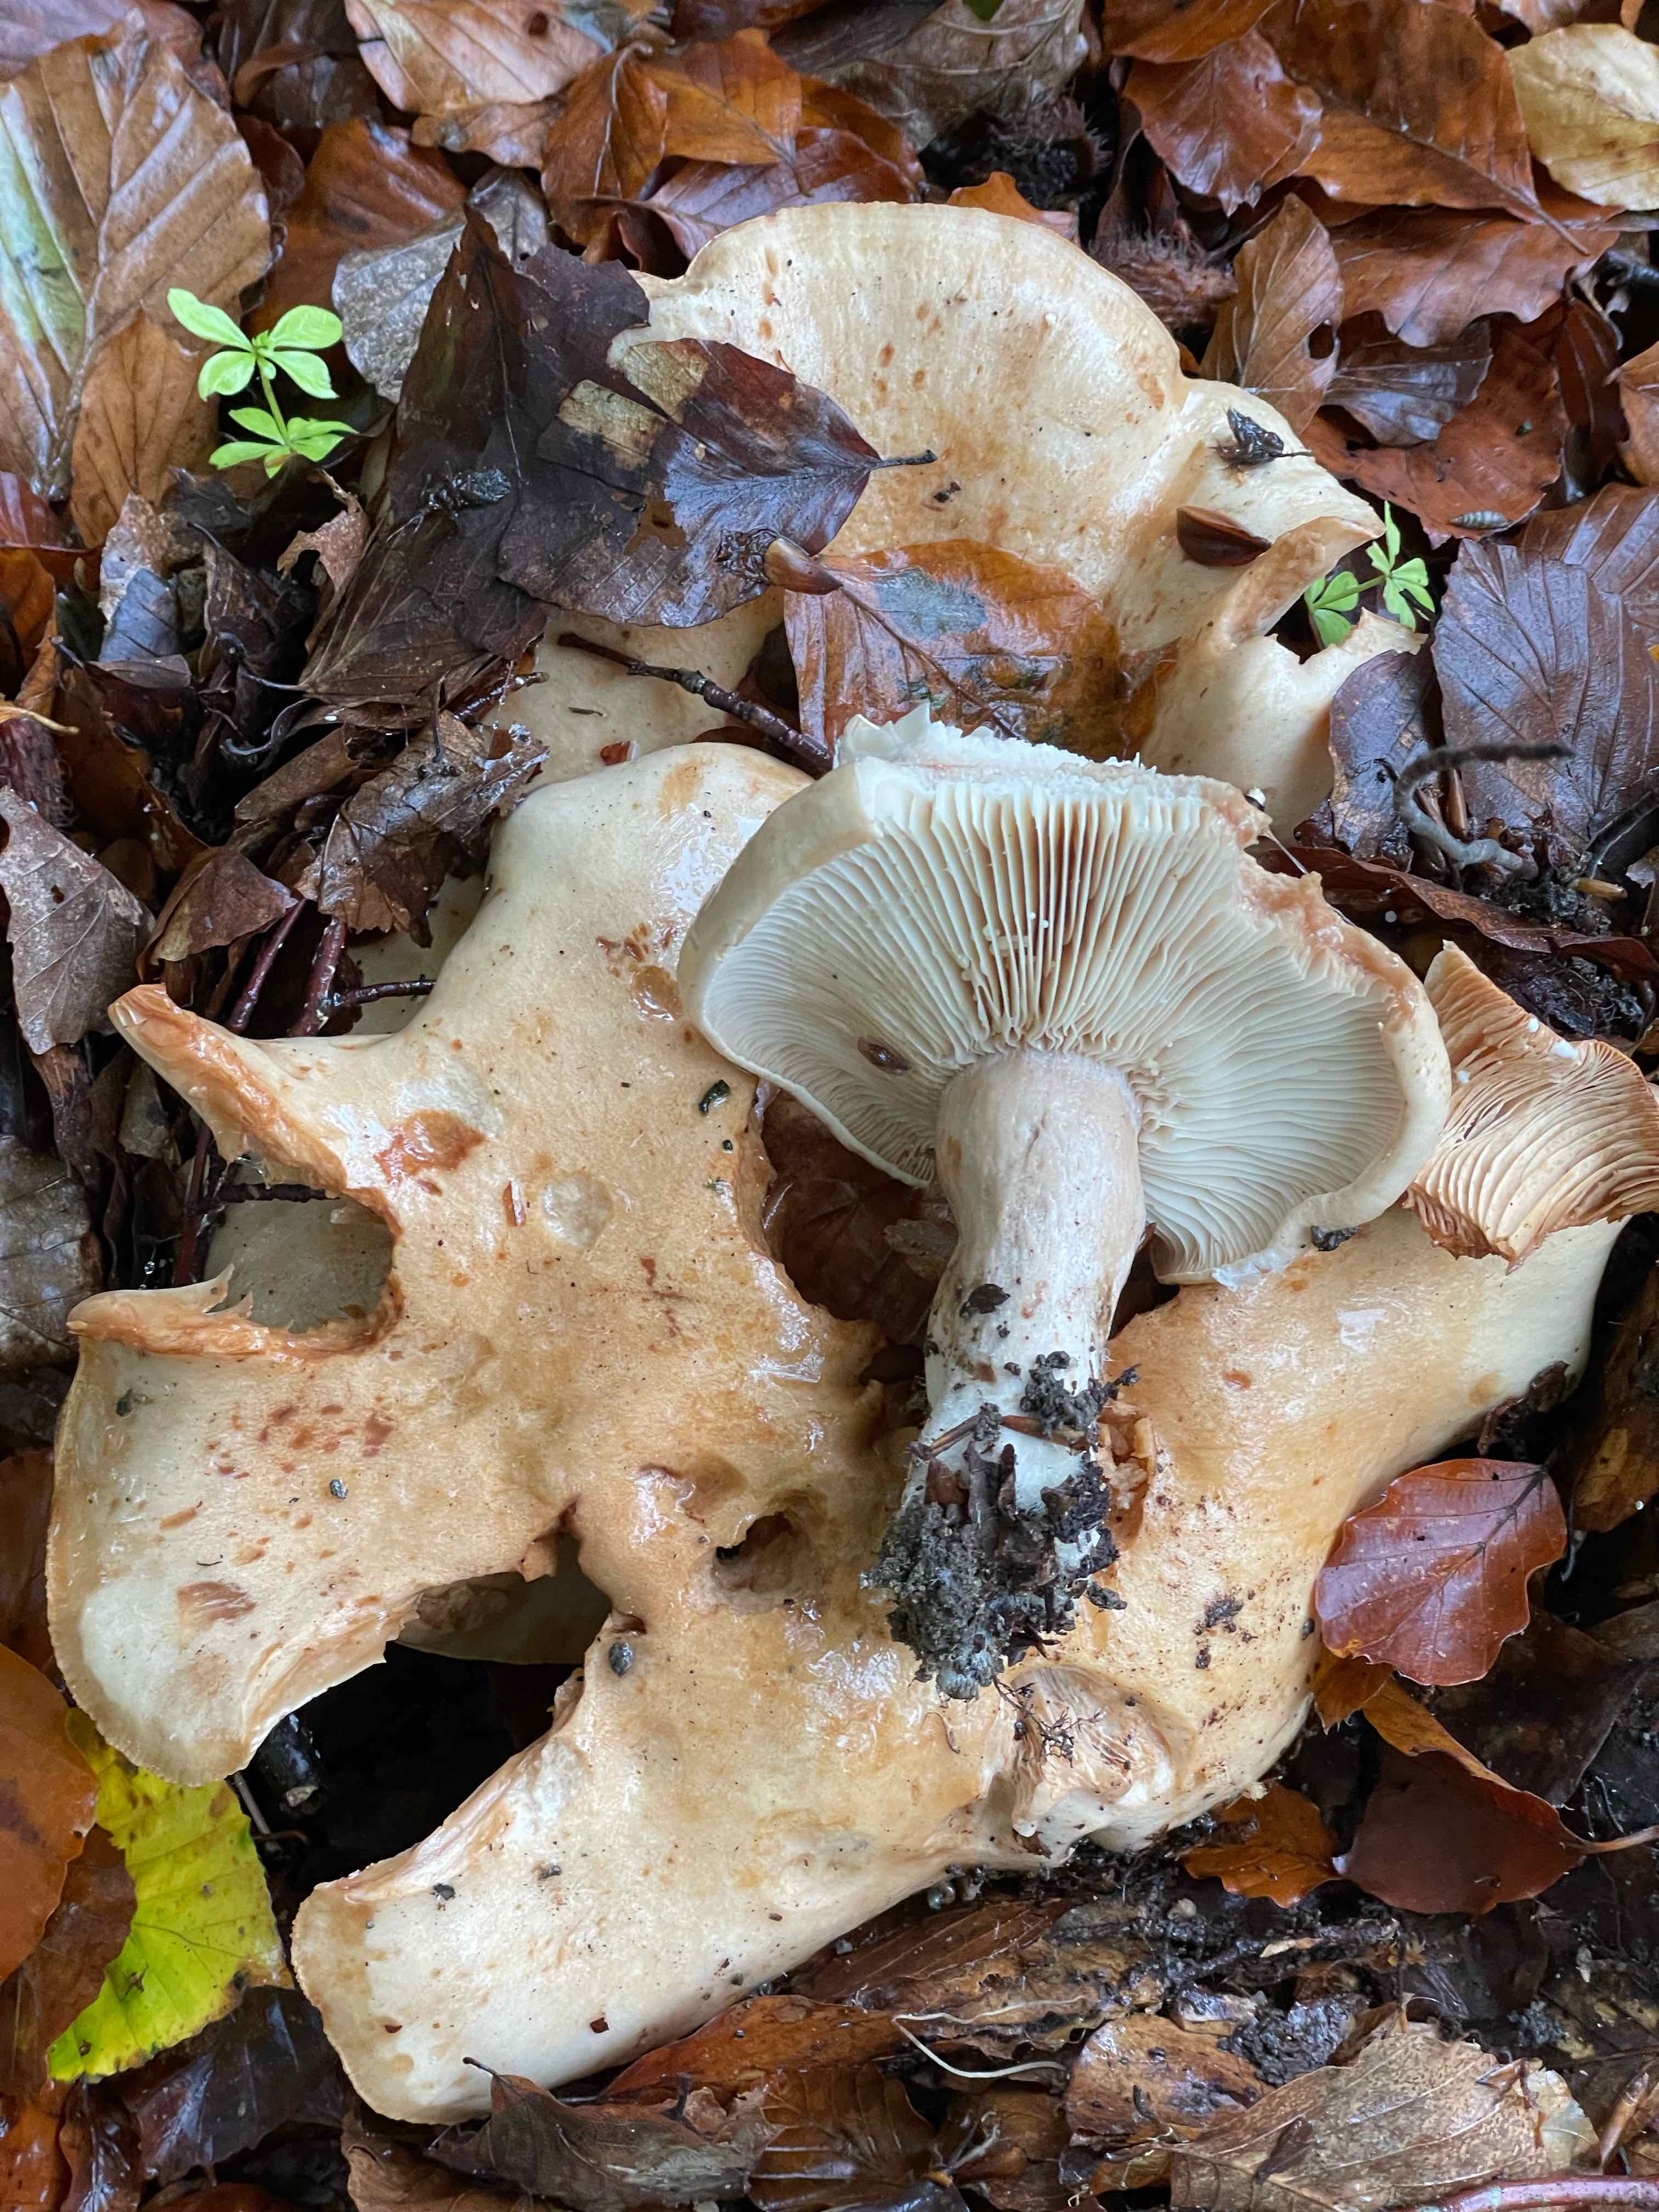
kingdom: Fungi
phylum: Basidiomycota
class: Agaricomycetes
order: Russulales
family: Russulaceae
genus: Lactarius
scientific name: Lactarius pallidus
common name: bleg mælkehat
